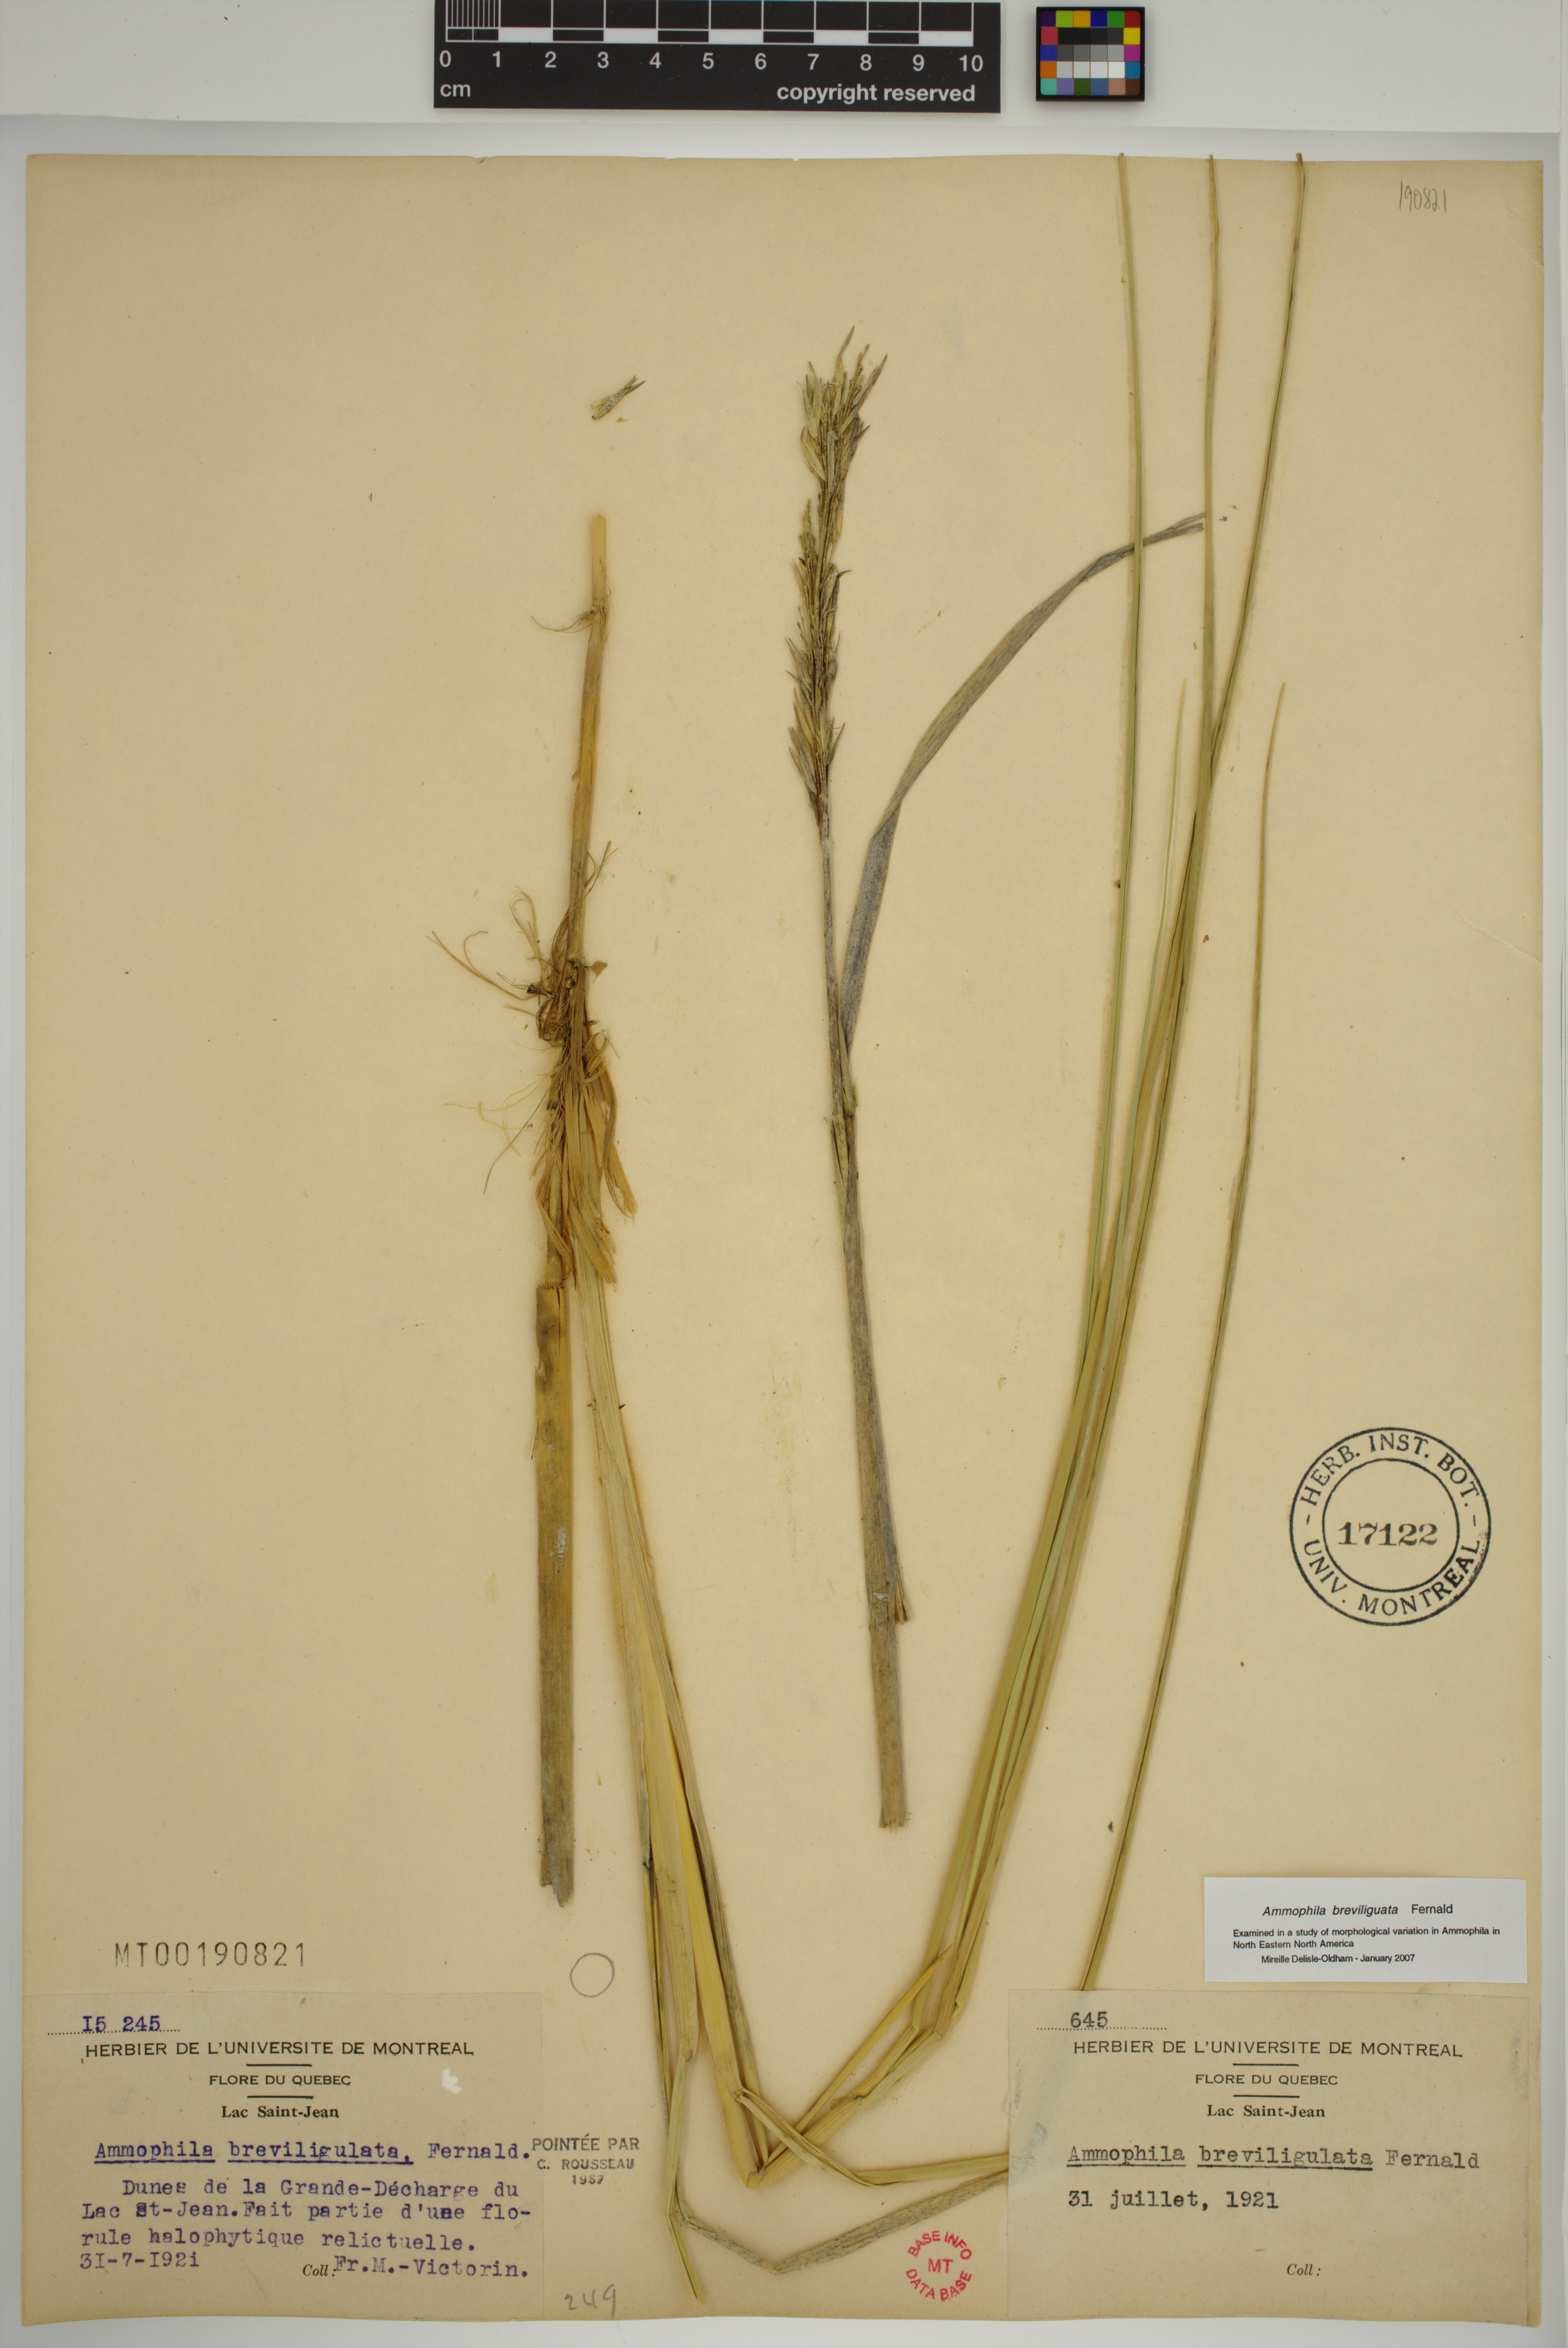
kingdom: Plantae
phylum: Tracheophyta
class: Liliopsida
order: Poales
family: Poaceae
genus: Calamagrostis
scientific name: Calamagrostis breviligulata
